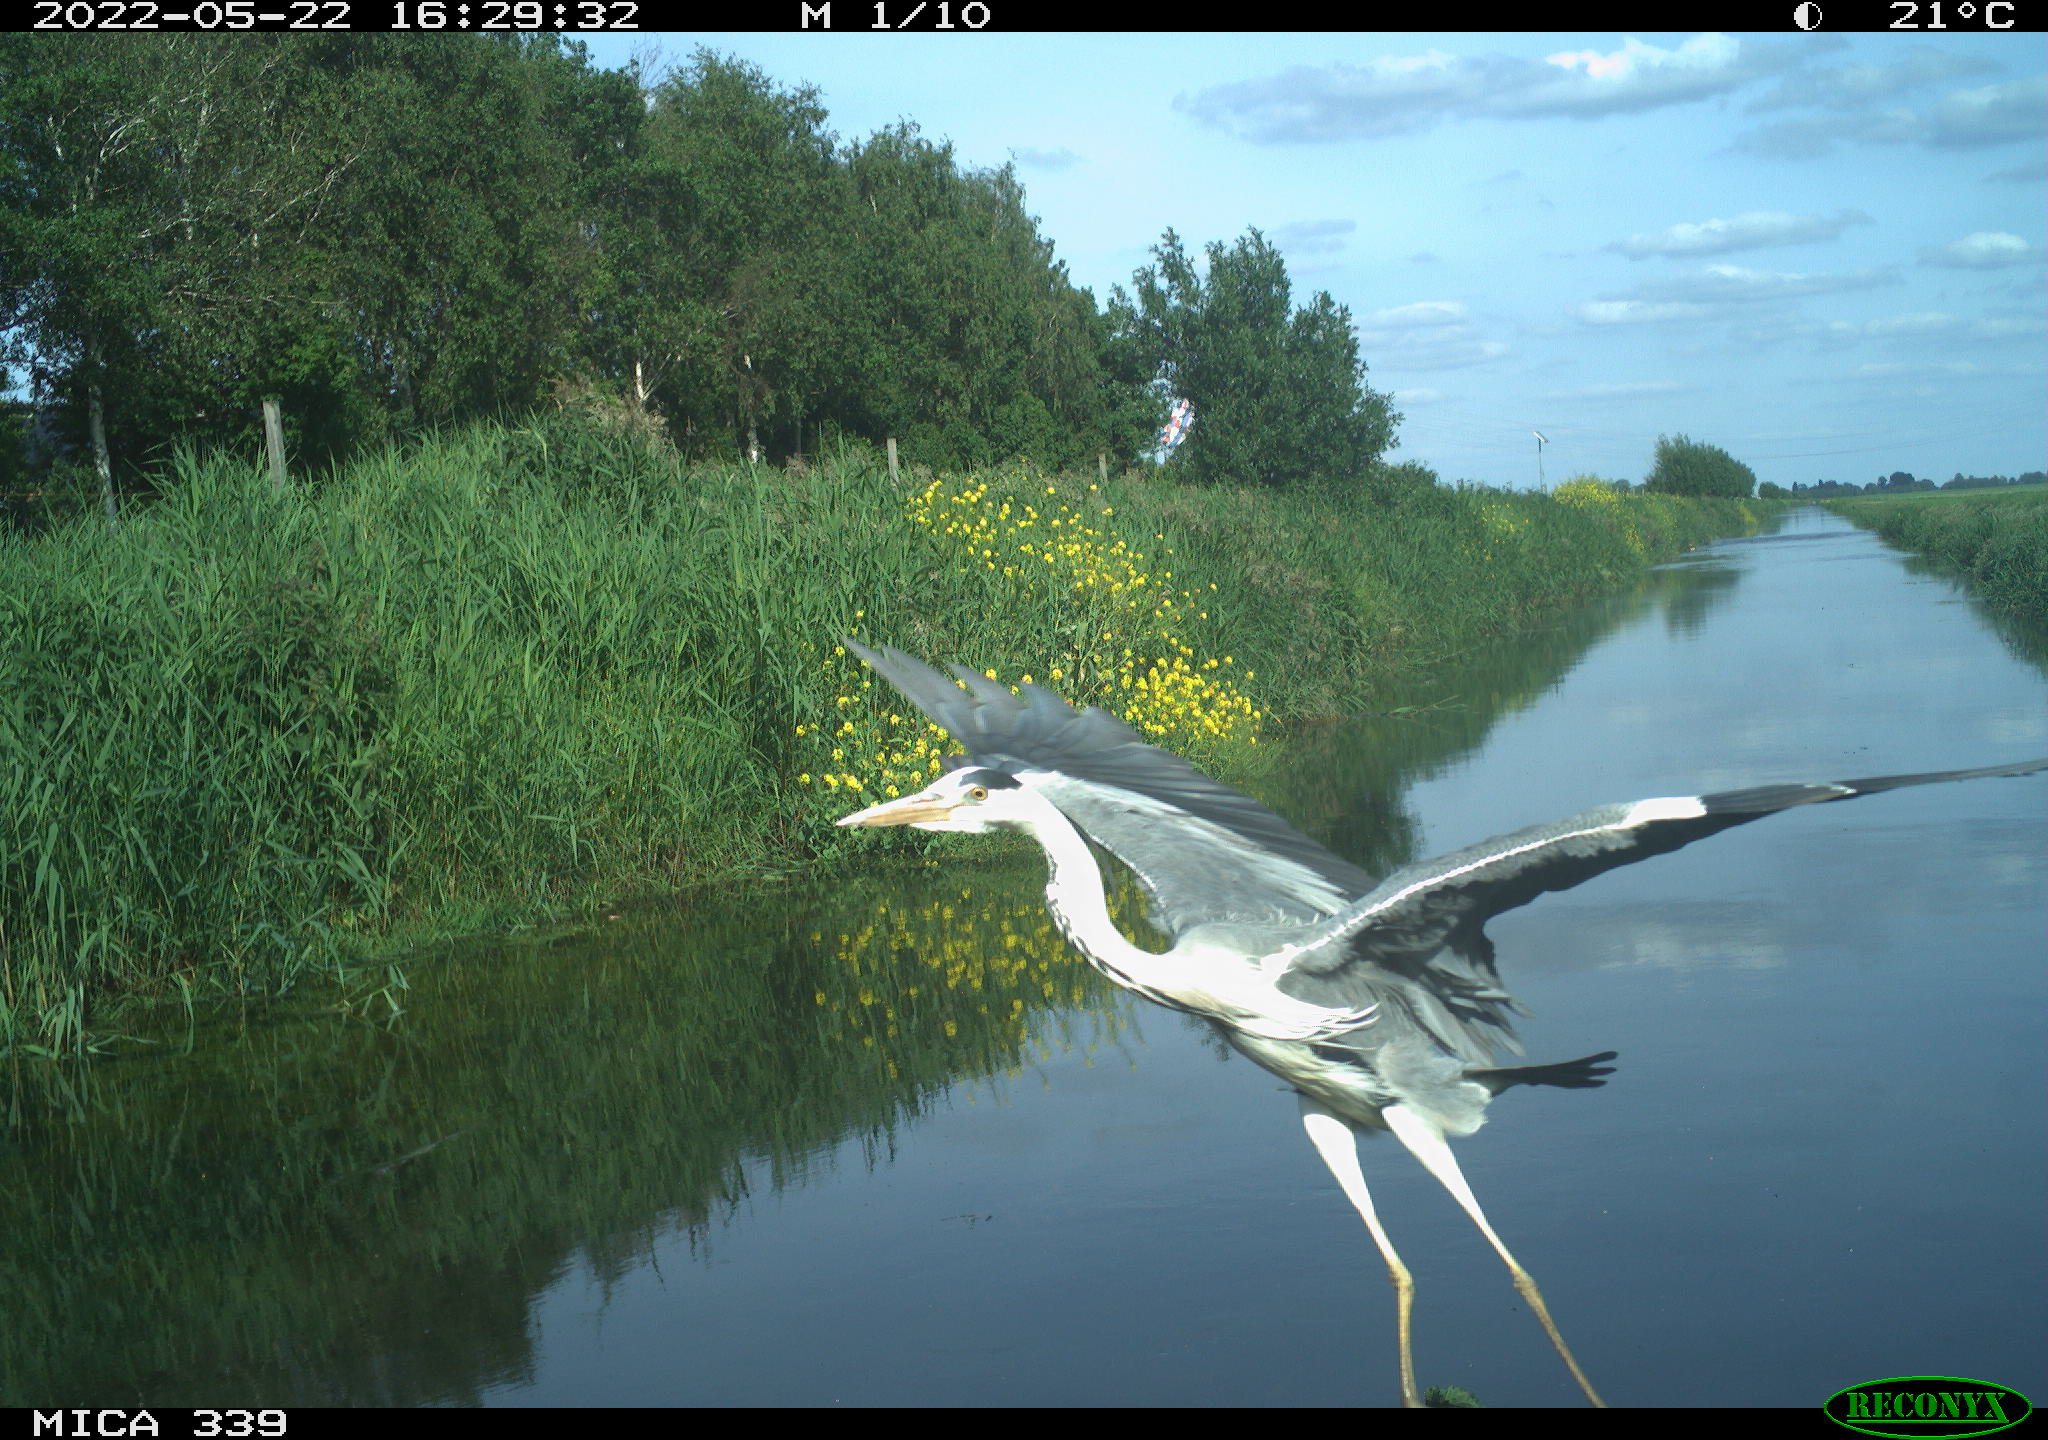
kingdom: Animalia
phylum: Chordata
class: Aves
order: Pelecaniformes
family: Ardeidae
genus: Ardea
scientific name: Ardea cinerea
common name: Grey heron
